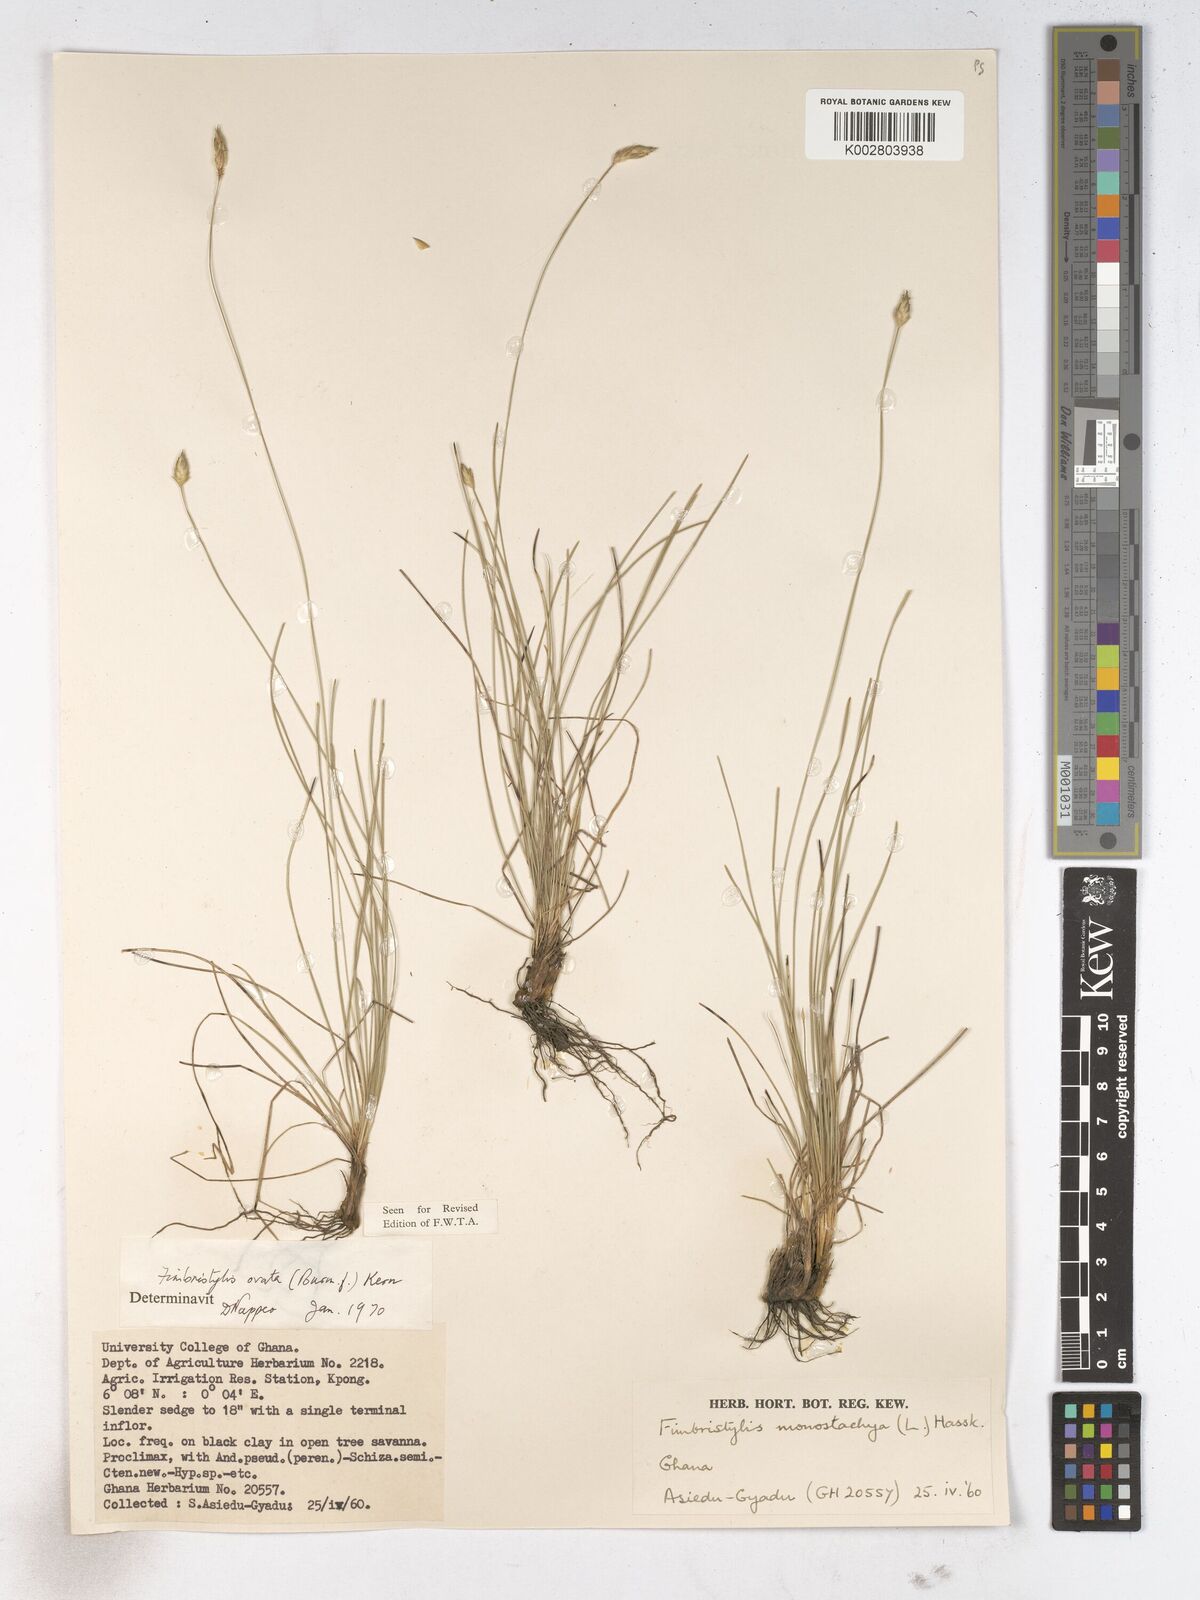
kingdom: Plantae
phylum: Tracheophyta
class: Liliopsida
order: Poales
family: Cyperaceae
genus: Abildgaardia
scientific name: Abildgaardia ovata
